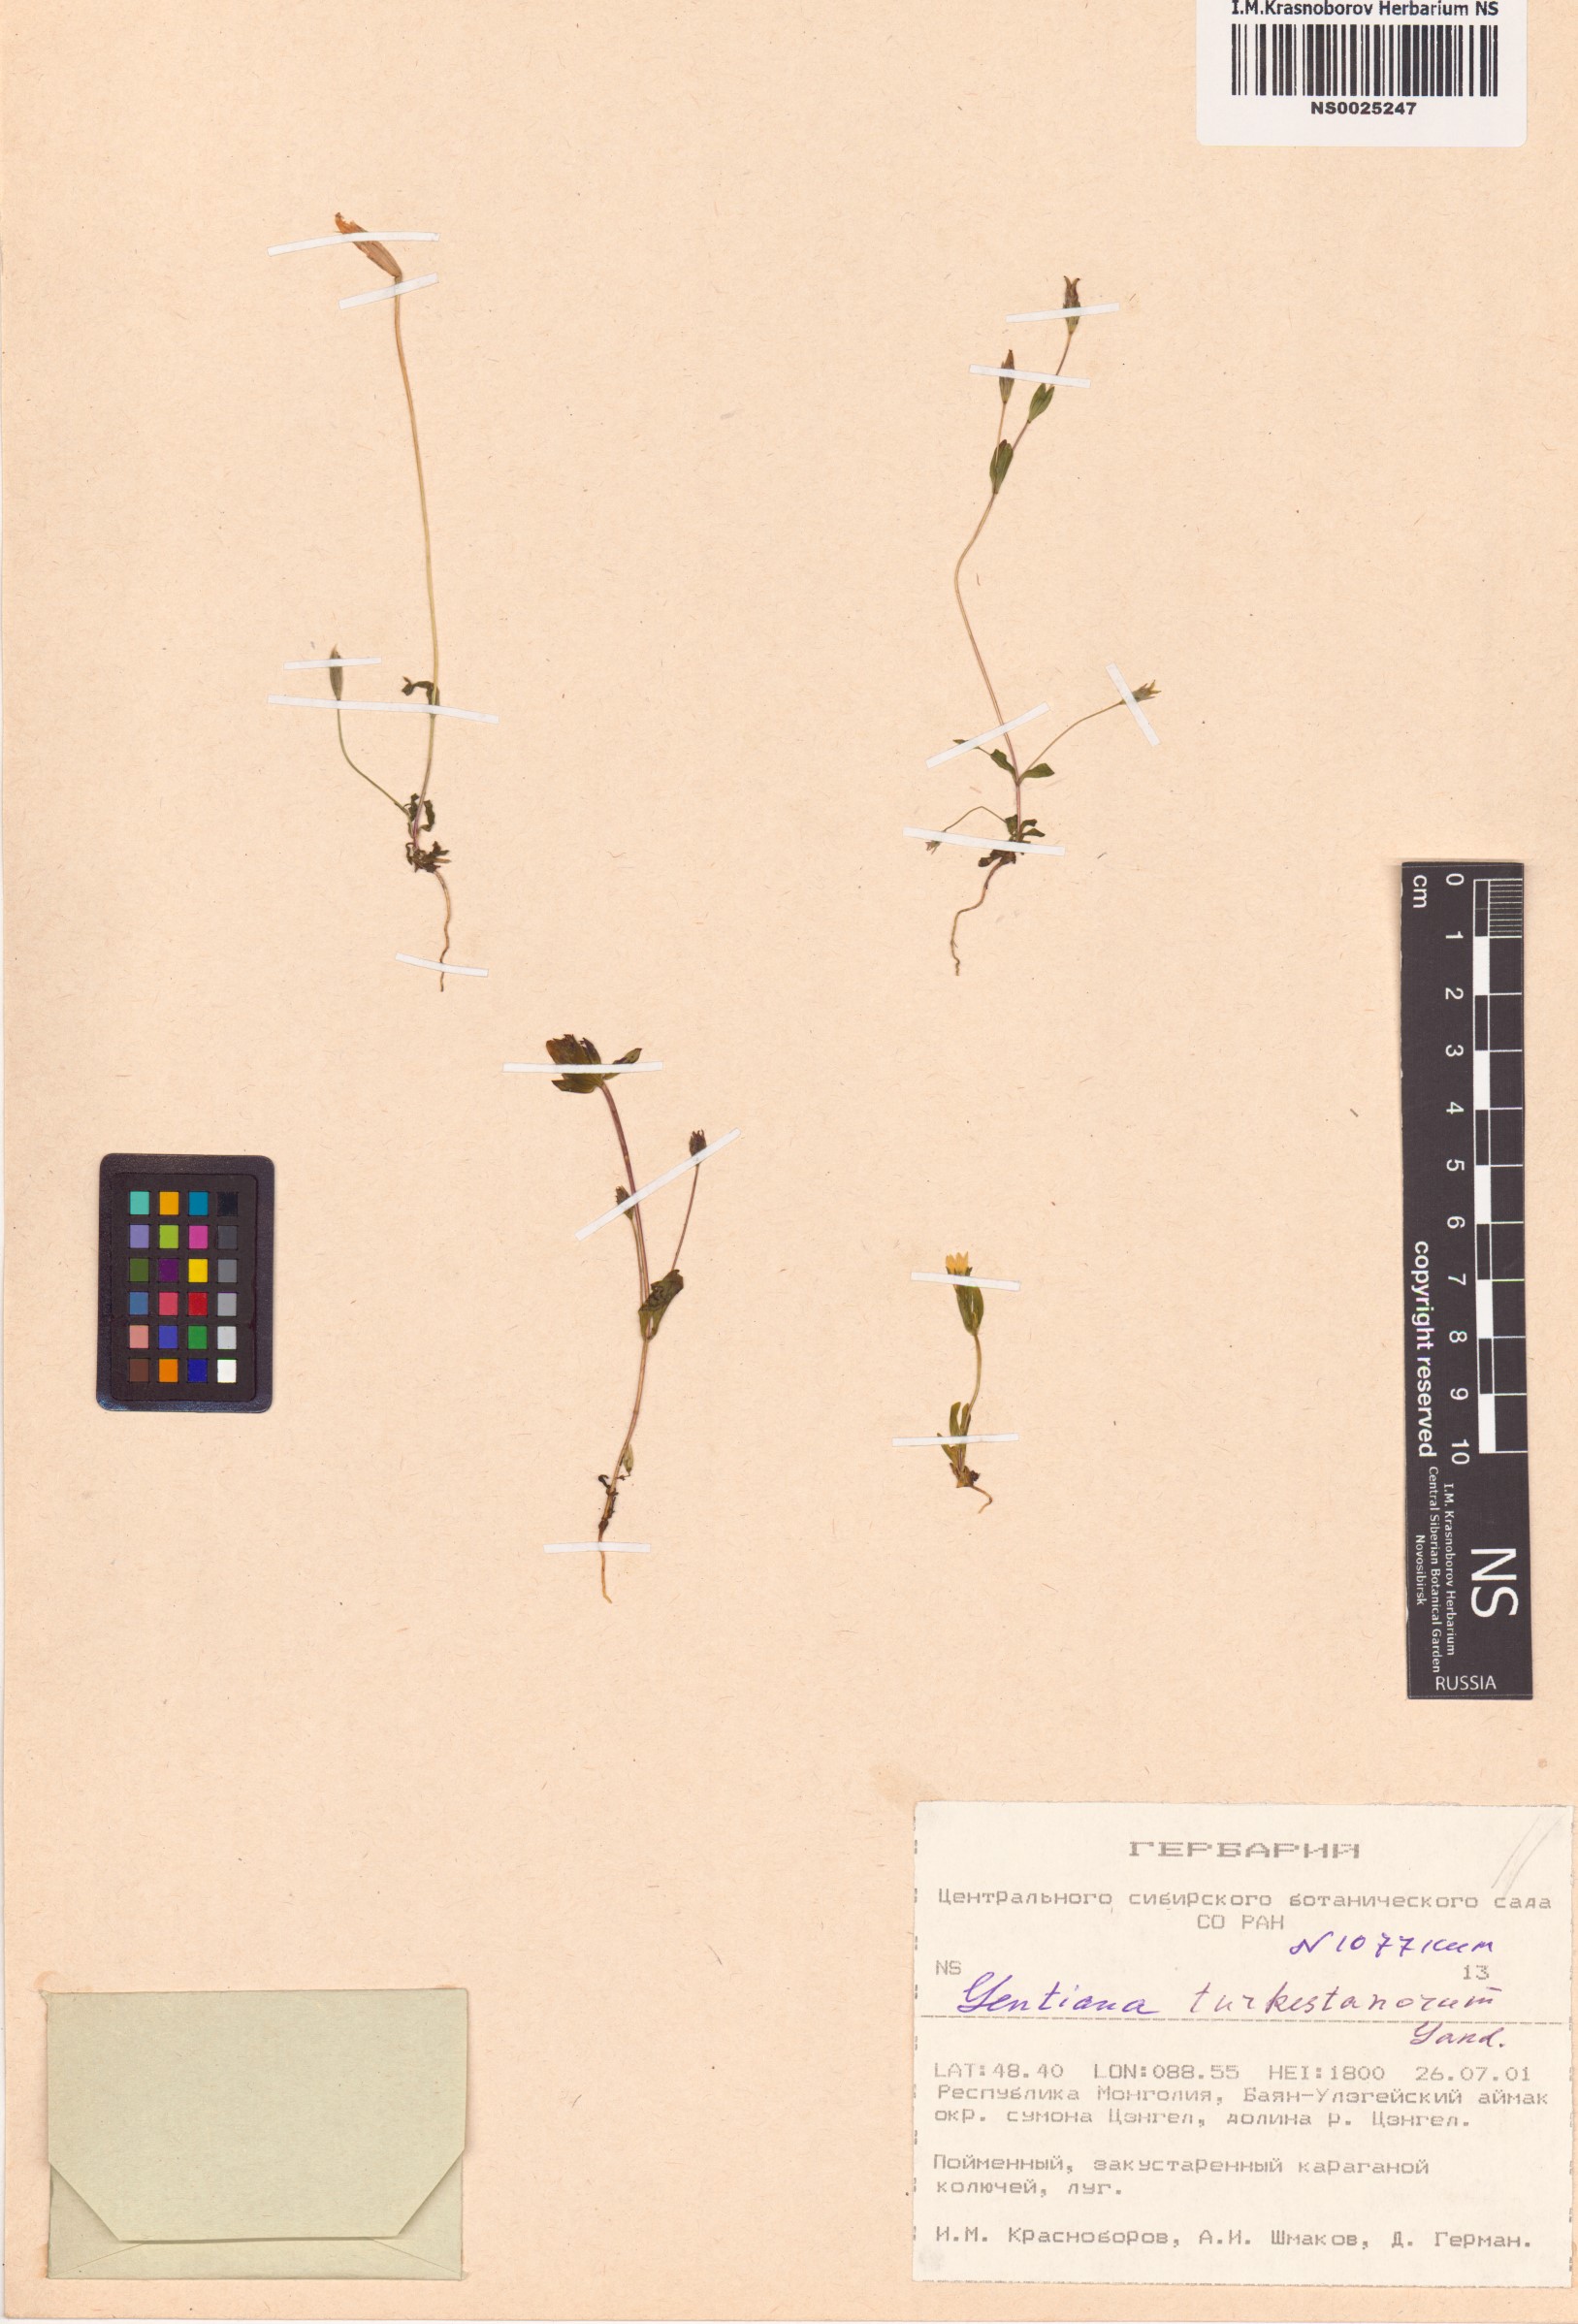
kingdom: Plantae
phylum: Tracheophyta
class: Magnoliopsida
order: Gentianales
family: Gentianaceae
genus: Gentianella
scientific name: Gentianella turkestanorum
